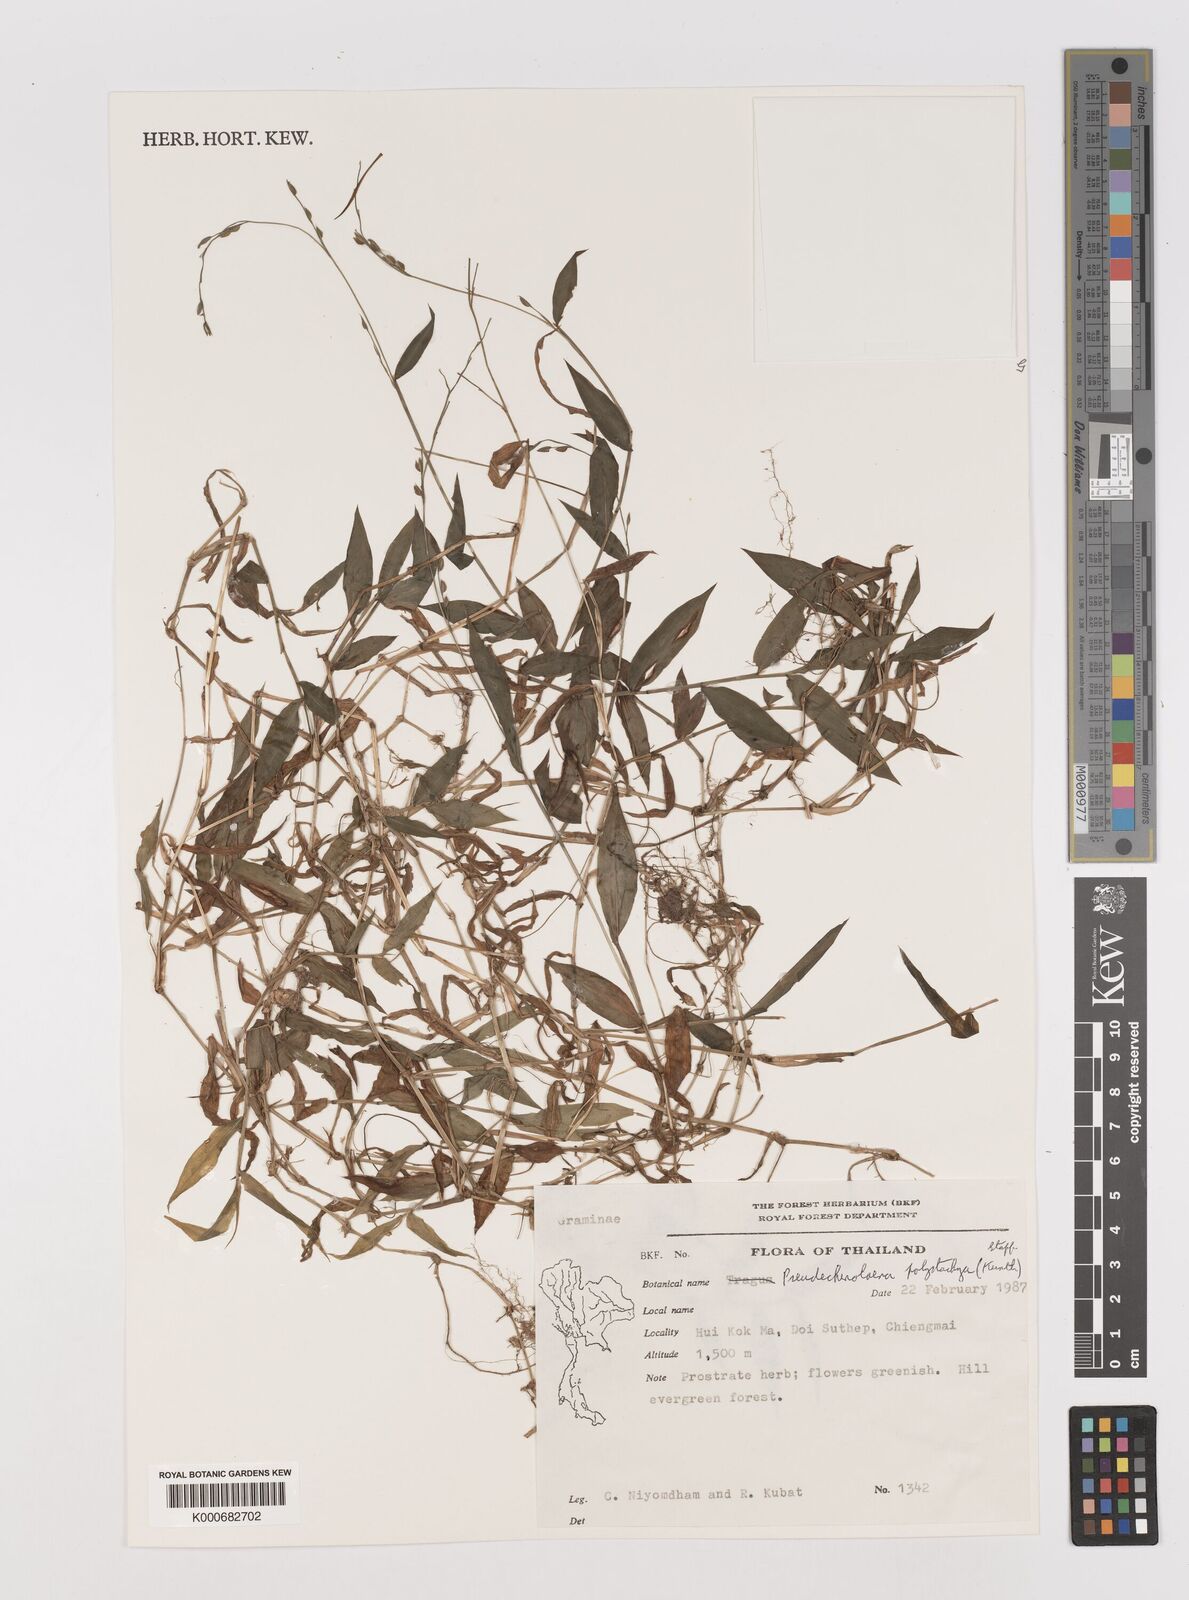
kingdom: Plantae
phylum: Tracheophyta
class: Liliopsida
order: Poales
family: Poaceae
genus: Pseudechinolaena
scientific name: Pseudechinolaena polystachya
